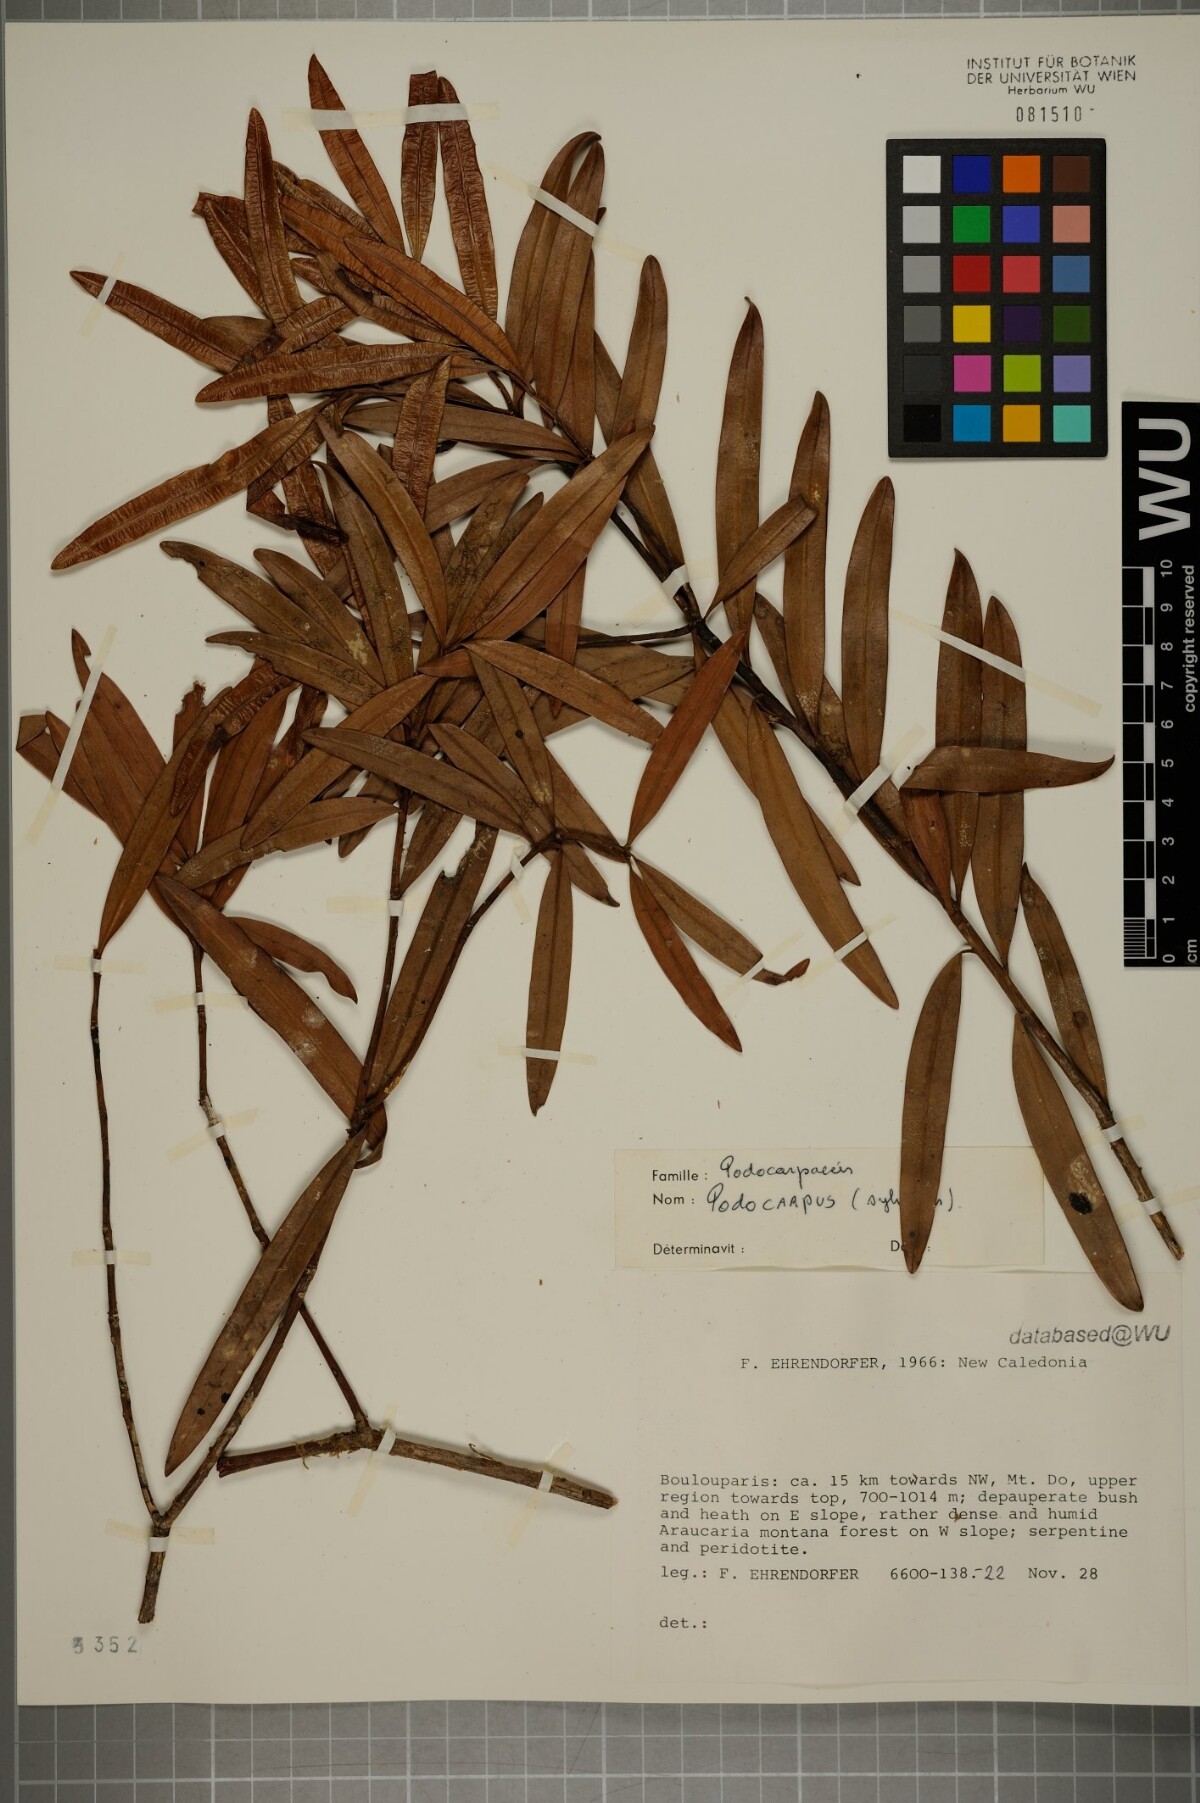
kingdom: Plantae
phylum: Tracheophyta
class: Pinopsida
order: Pinales
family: Podocarpaceae
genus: Podocarpus
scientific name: Podocarpus sylvestris
